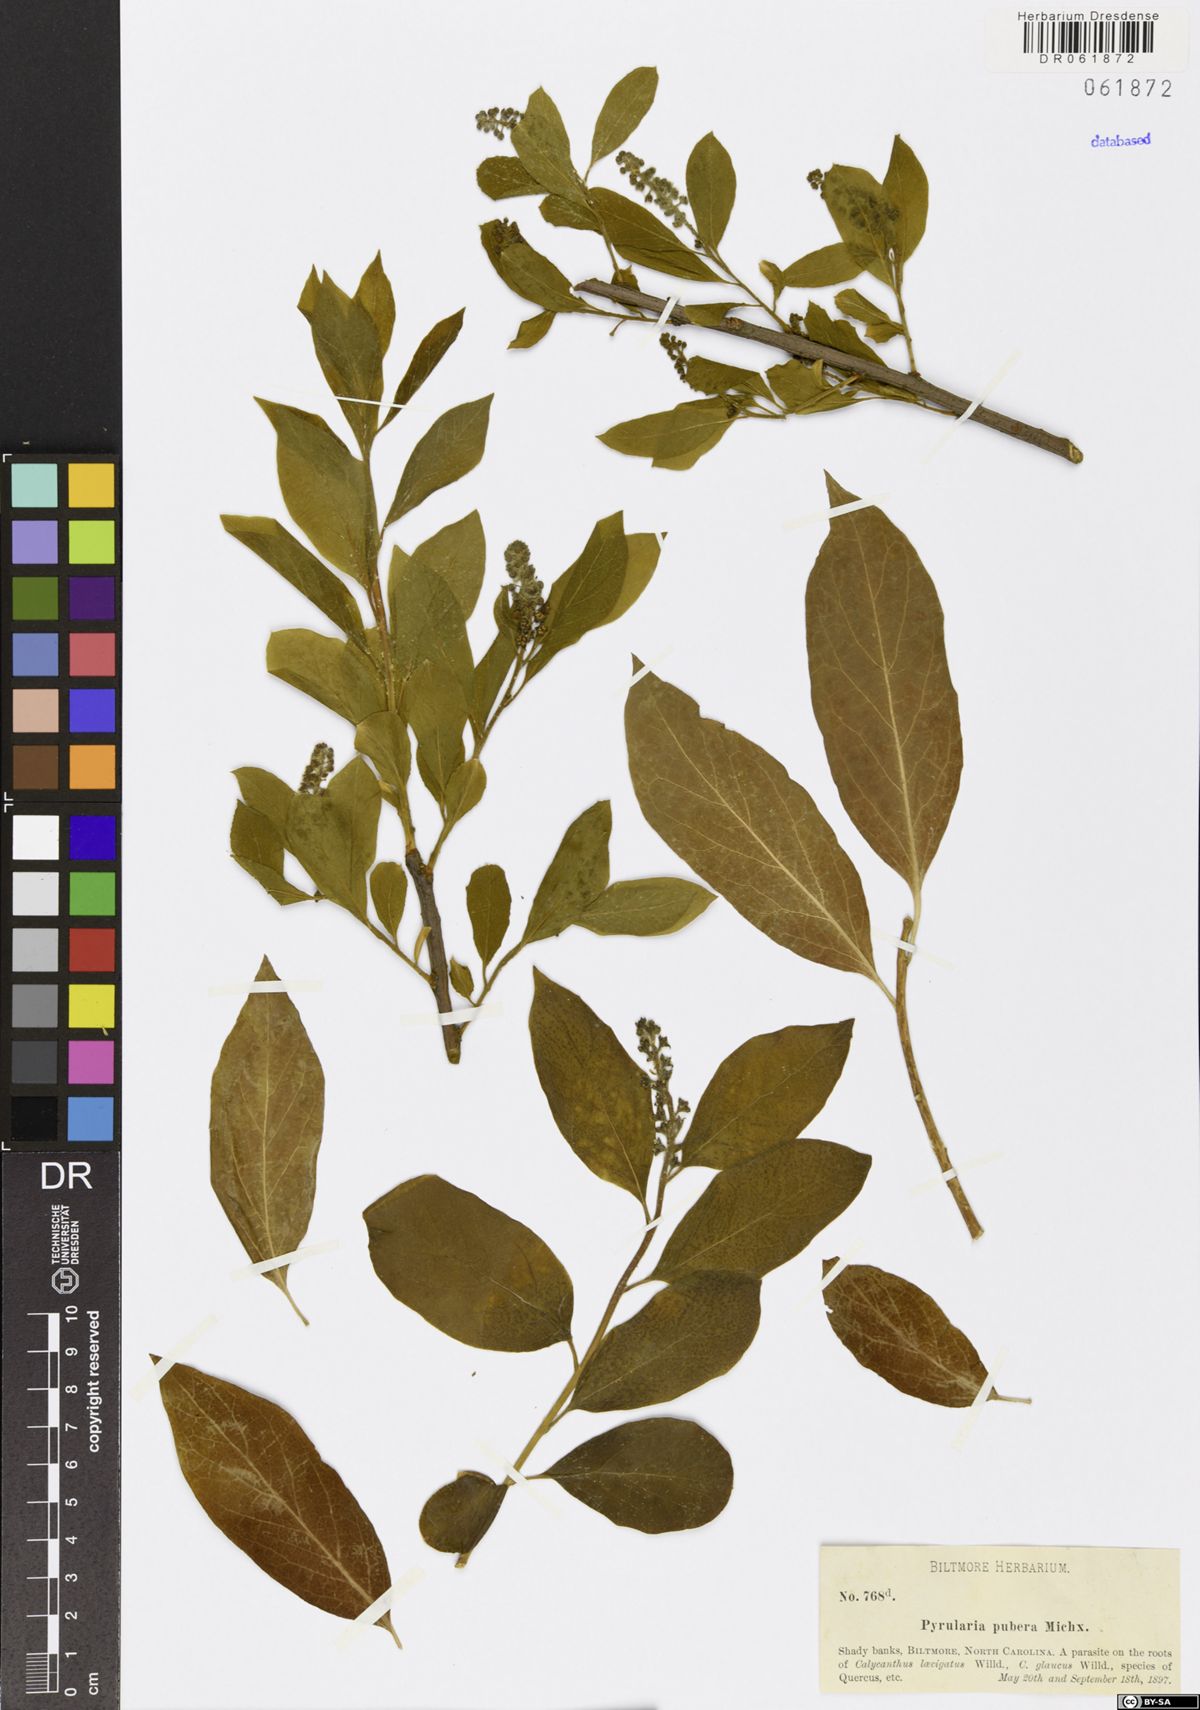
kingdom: Plantae
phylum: Tracheophyta
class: Magnoliopsida
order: Santalales
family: Cervantesiaceae
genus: Pyrularia
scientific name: Pyrularia pubera
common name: Oilnut
